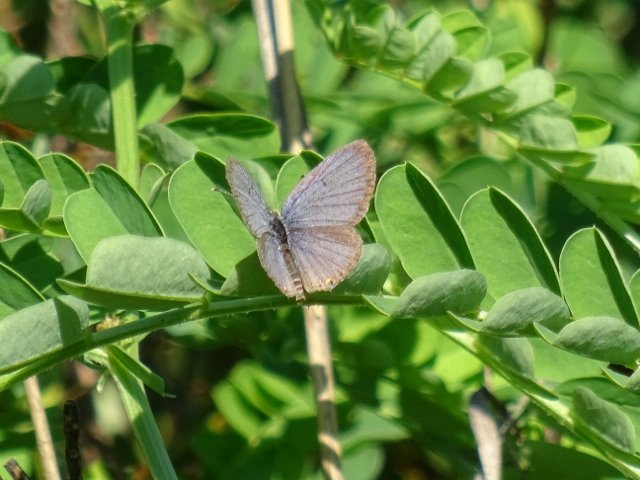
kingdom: Animalia
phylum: Arthropoda
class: Insecta
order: Lepidoptera
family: Lycaenidae
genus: Elkalyce
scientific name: Elkalyce comyntas
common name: Eastern Tailed-Blue
